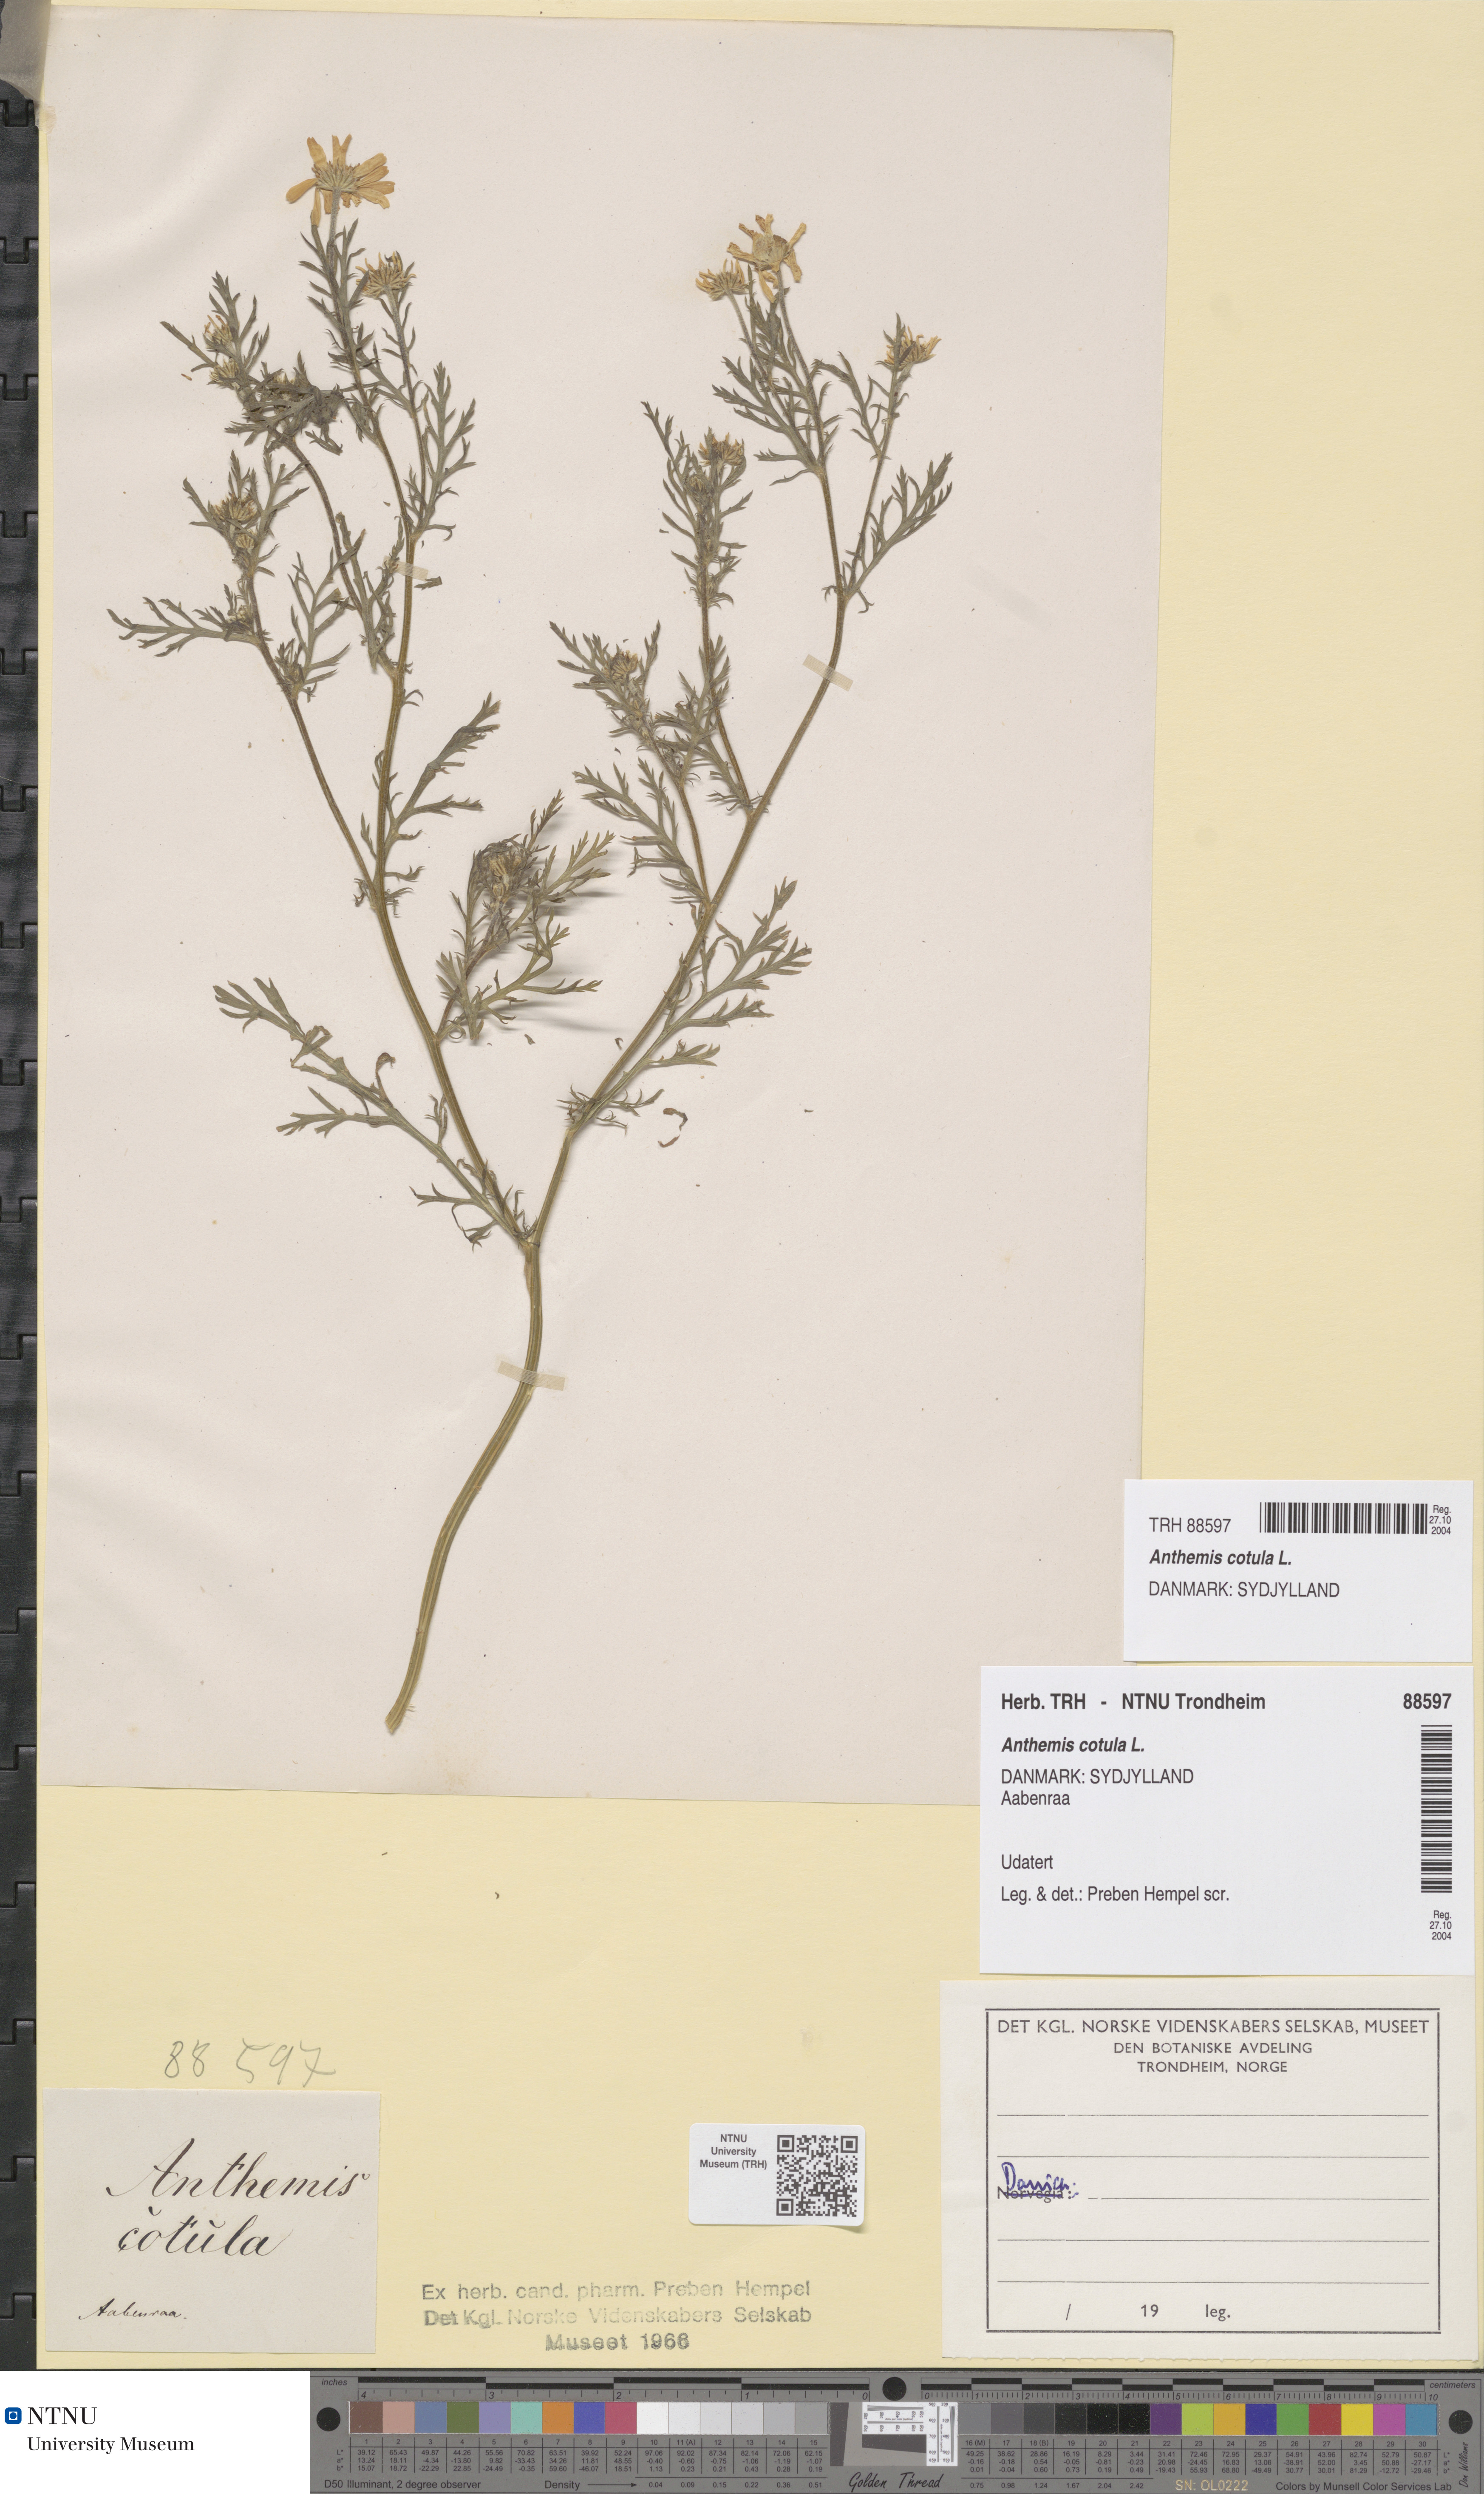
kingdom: Plantae
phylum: Tracheophyta
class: Magnoliopsida
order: Asterales
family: Asteraceae
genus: Anthemis
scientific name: Anthemis cotula
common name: Stinking chamomile
